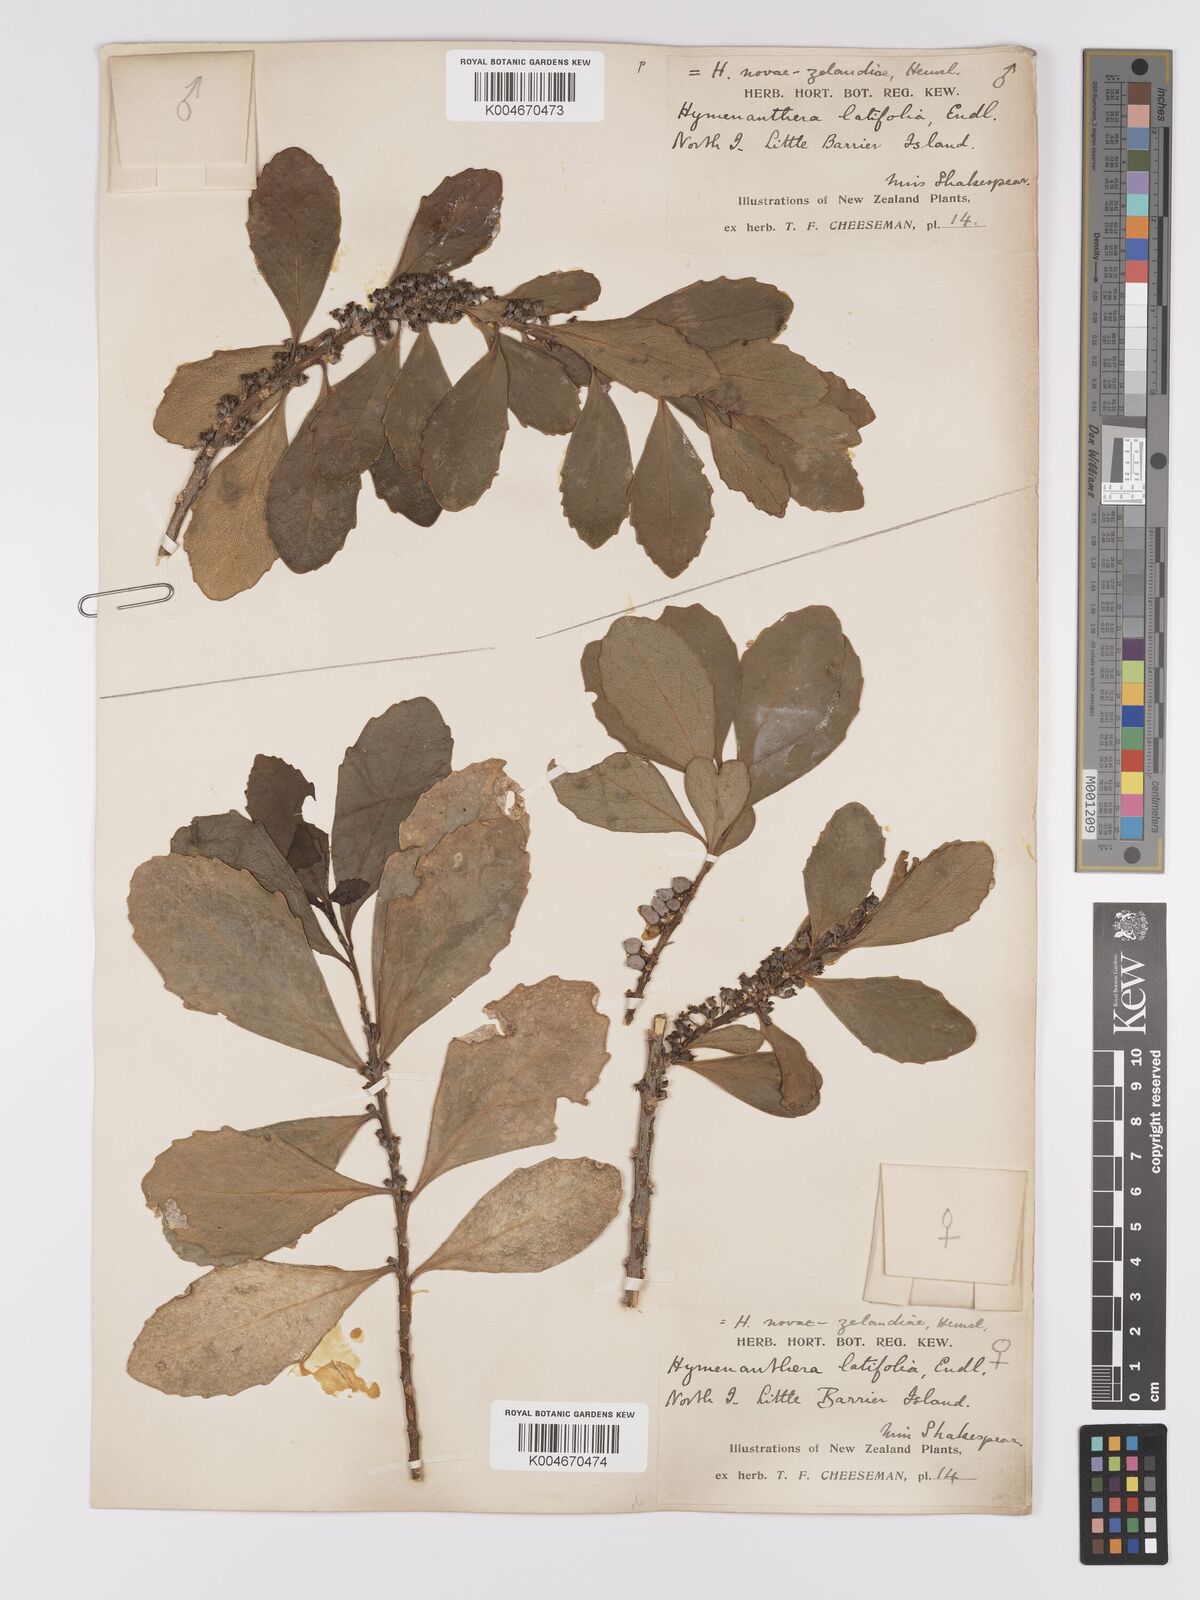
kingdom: Plantae
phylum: Tracheophyta
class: Magnoliopsida
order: Malpighiales
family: Violaceae
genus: Melicytus
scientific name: Melicytus novae-zelandiae
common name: Coastal mahoe
